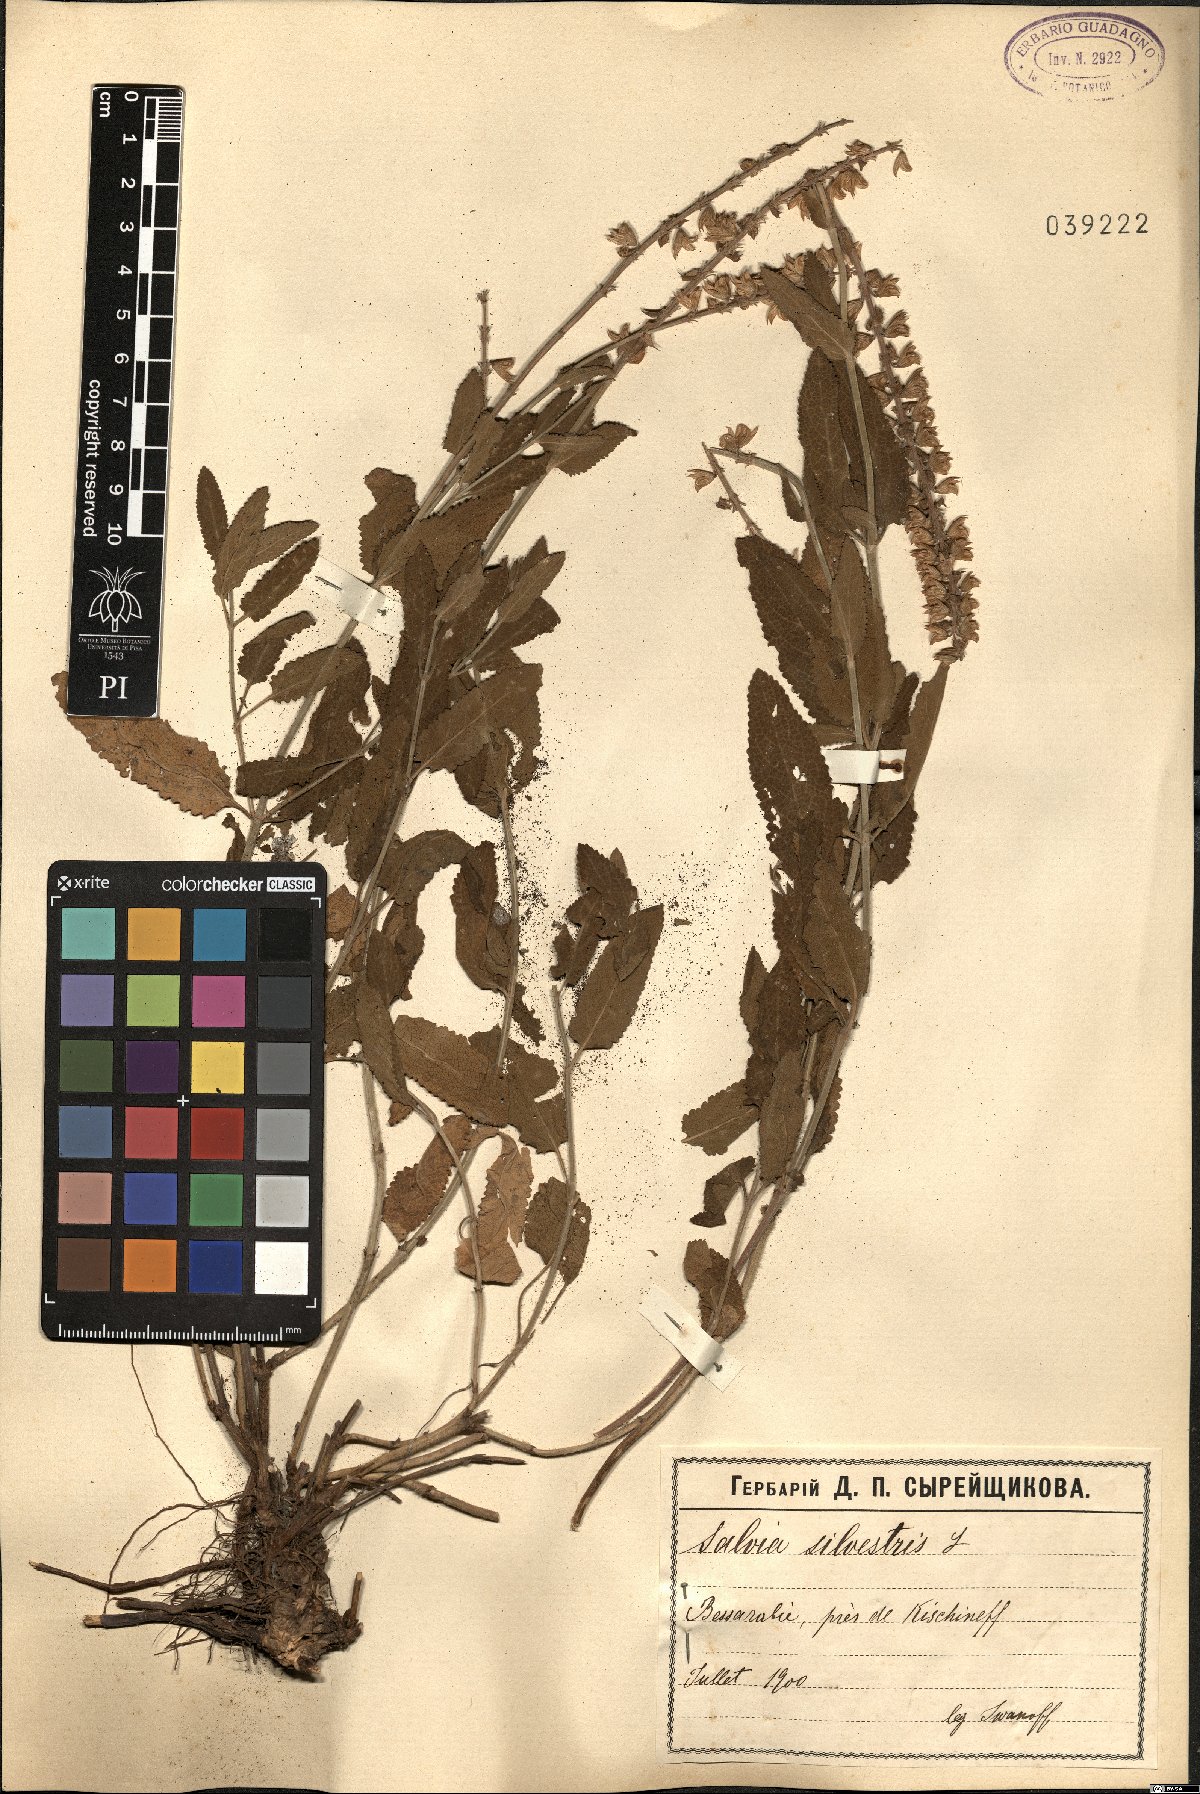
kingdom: Plantae
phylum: Tracheophyta
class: Magnoliopsida
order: Lamiales
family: Lamiaceae
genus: Salvia
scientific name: Salvia sylvestris
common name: Woodland sage
